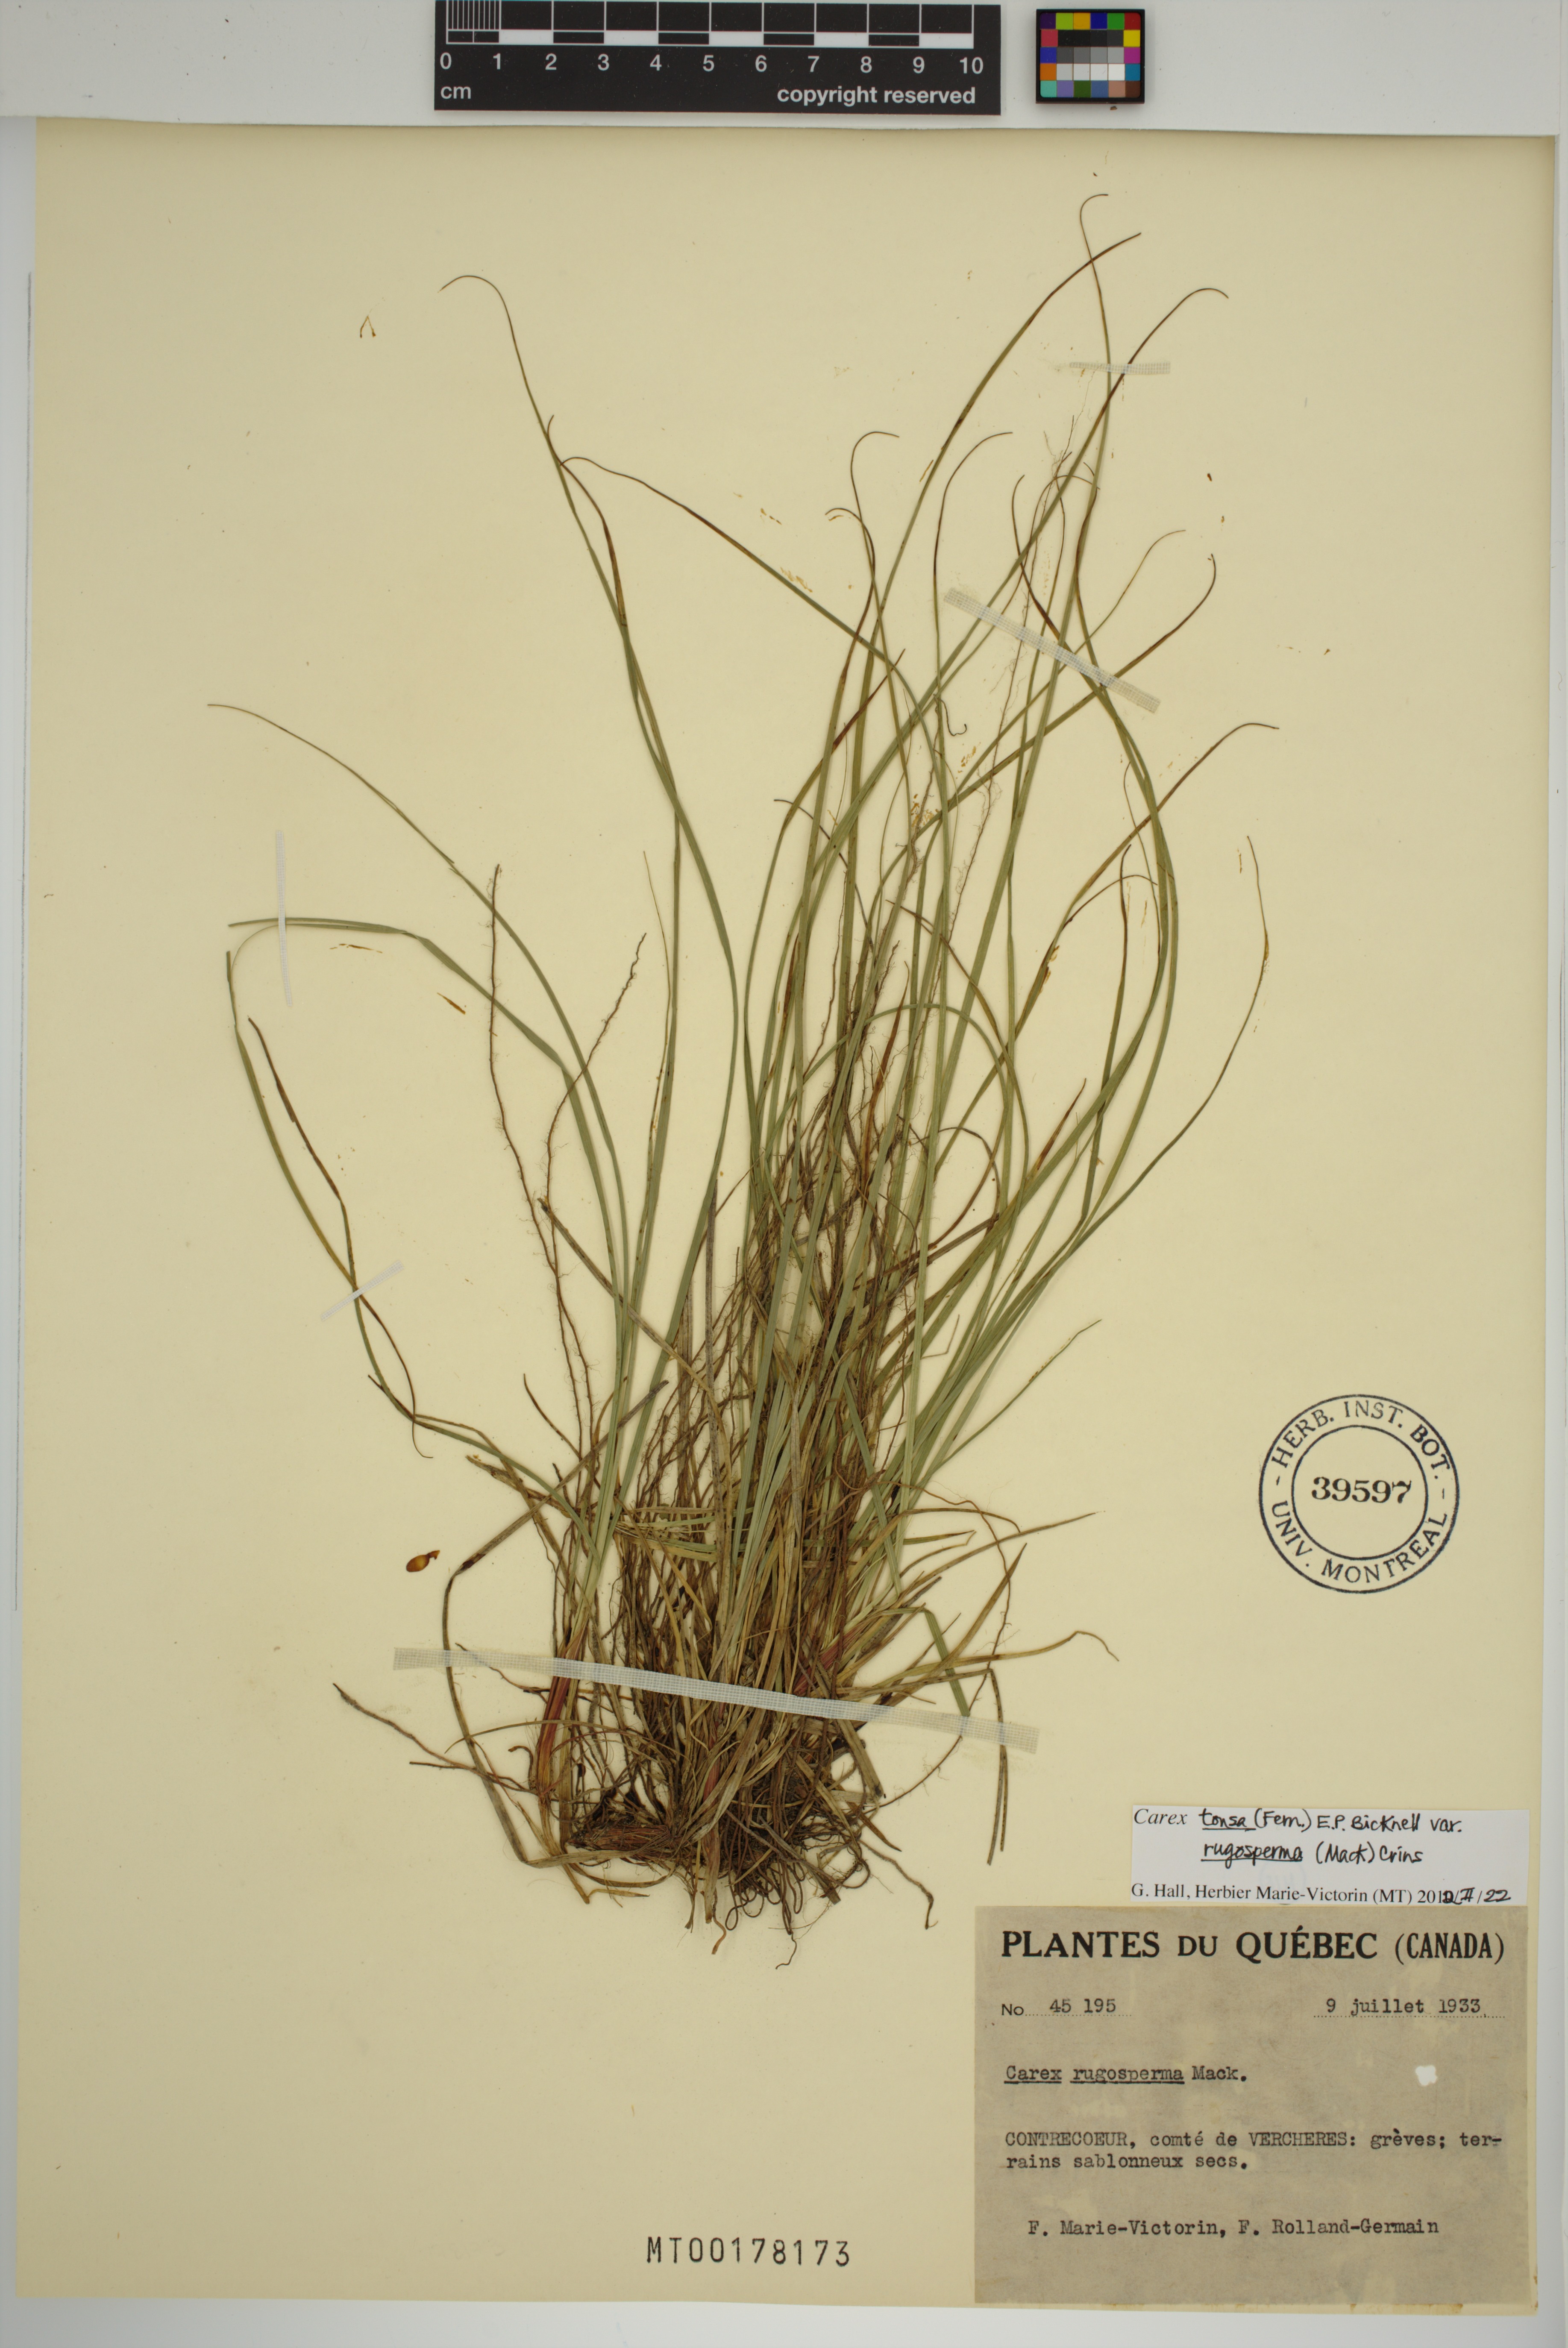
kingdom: Plantae
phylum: Tracheophyta
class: Liliopsida
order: Poales
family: Cyperaceae
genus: Carex
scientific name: Carex tonsa
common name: Bald sedge
